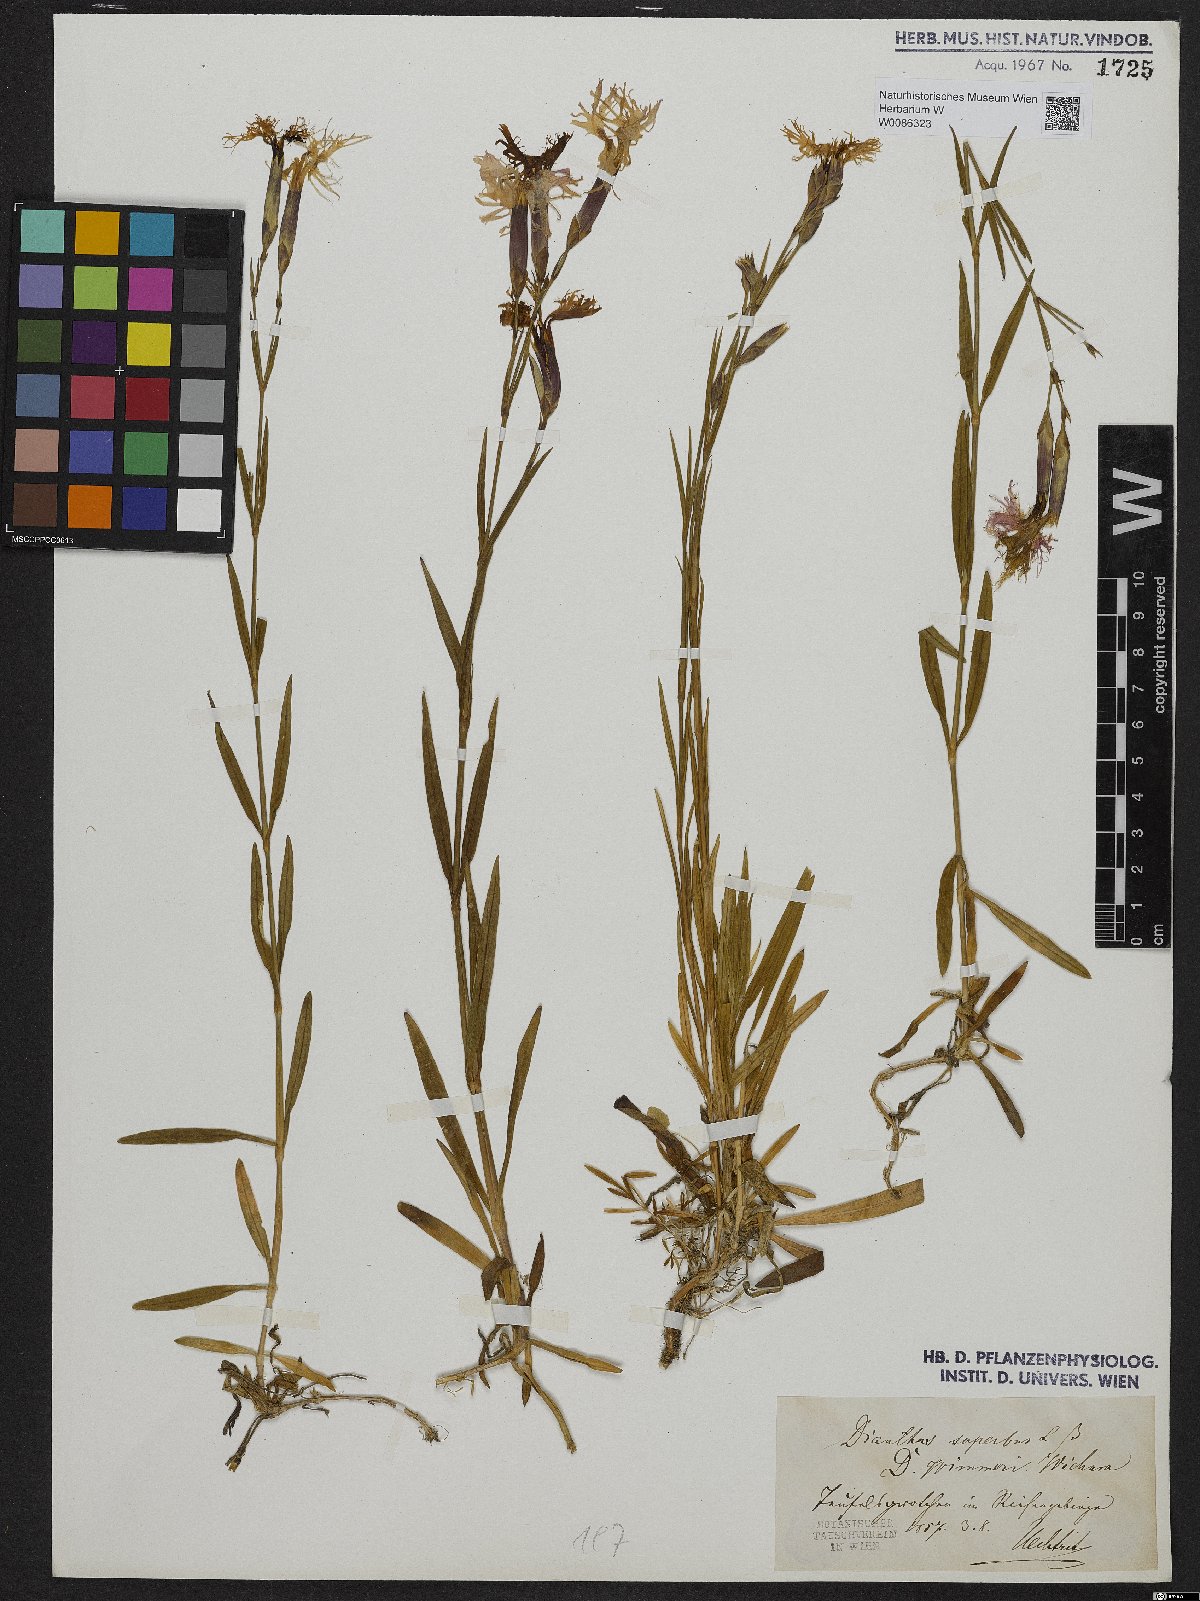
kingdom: Plantae
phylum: Tracheophyta
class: Magnoliopsida
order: Caryophyllales
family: Caryophyllaceae
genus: Dianthus
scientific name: Dianthus superbus
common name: Fringed pink
